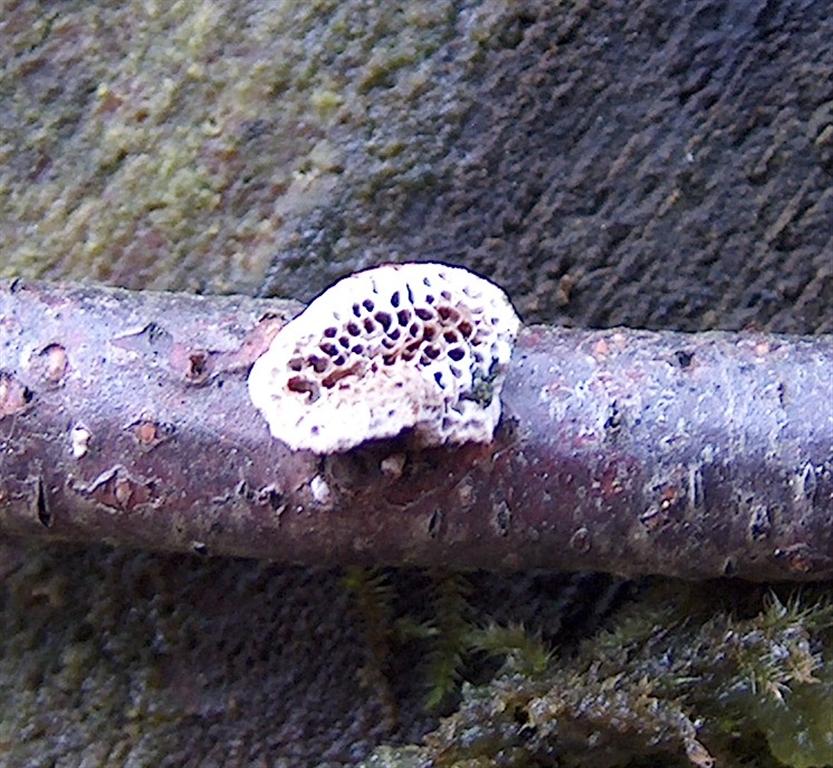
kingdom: Fungi
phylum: Basidiomycota
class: Agaricomycetes
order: Polyporales
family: Polyporaceae
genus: Daedaleopsis
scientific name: Daedaleopsis confragosa
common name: rødmende læderporesvamp
